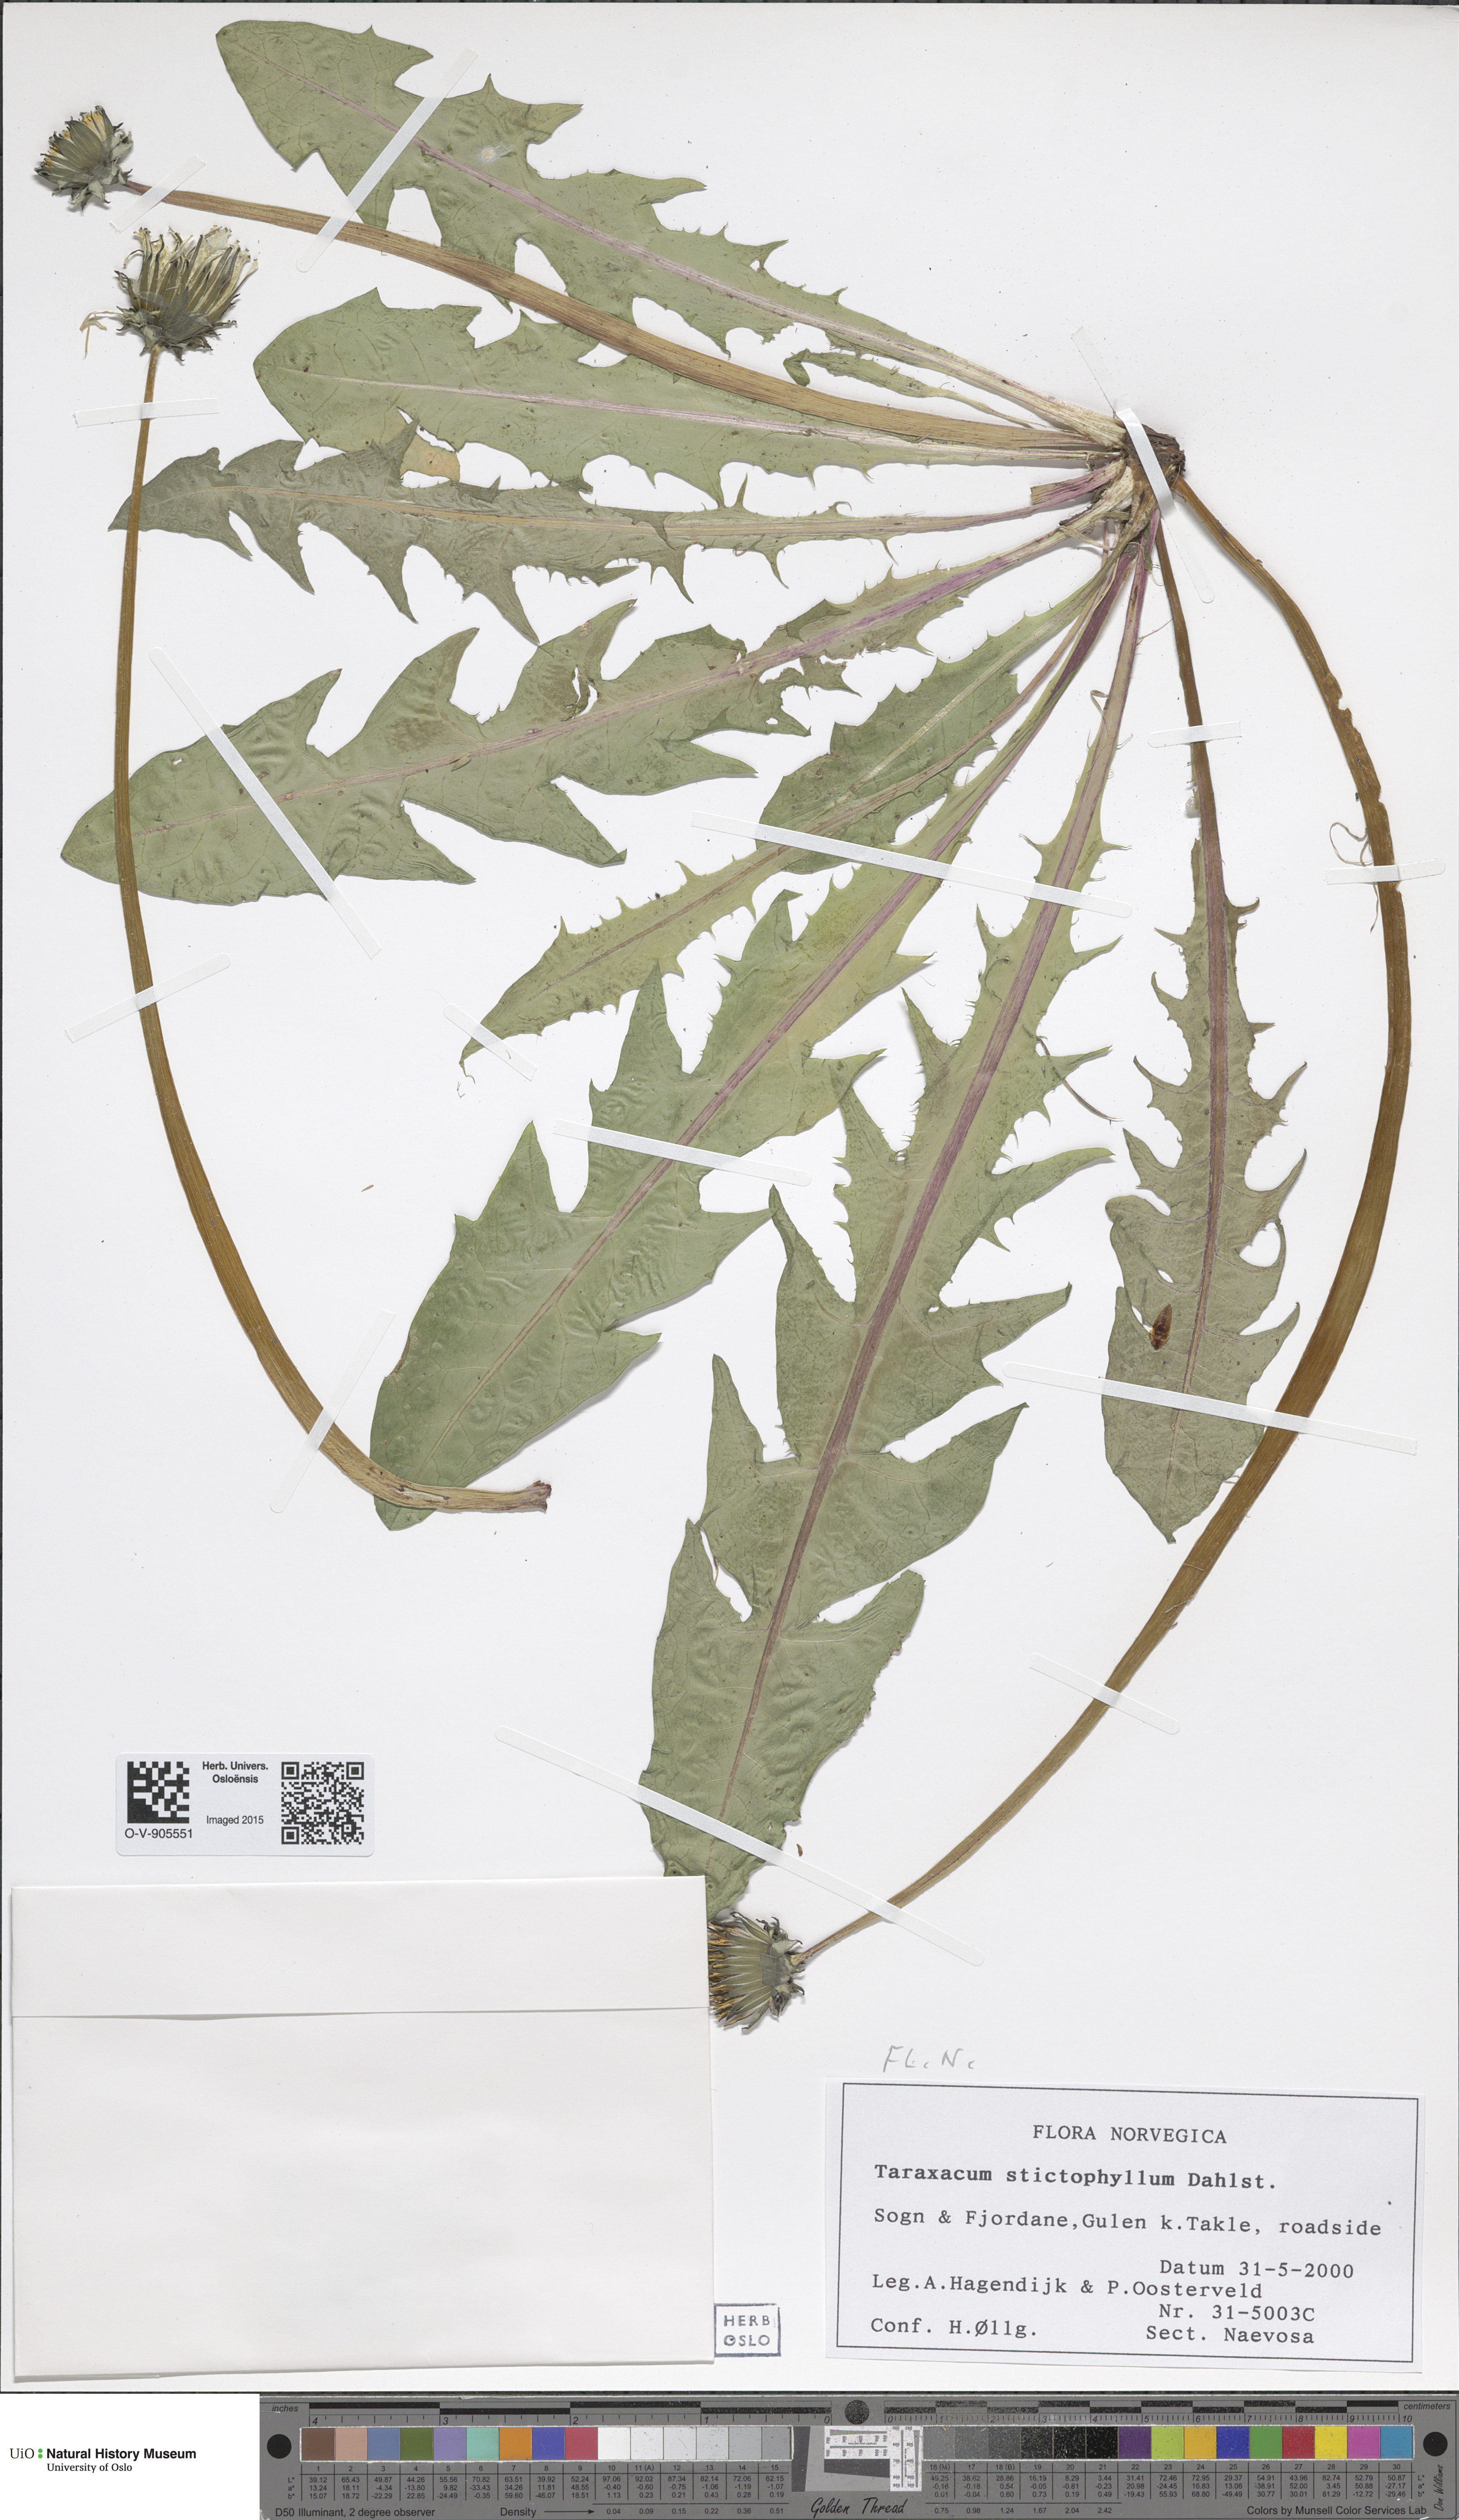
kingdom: Plantae
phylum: Tracheophyta
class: Magnoliopsida
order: Asterales
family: Asteraceae
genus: Taraxacum
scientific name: Taraxacum stictophyllum
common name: Stiff-leaved dandelion
